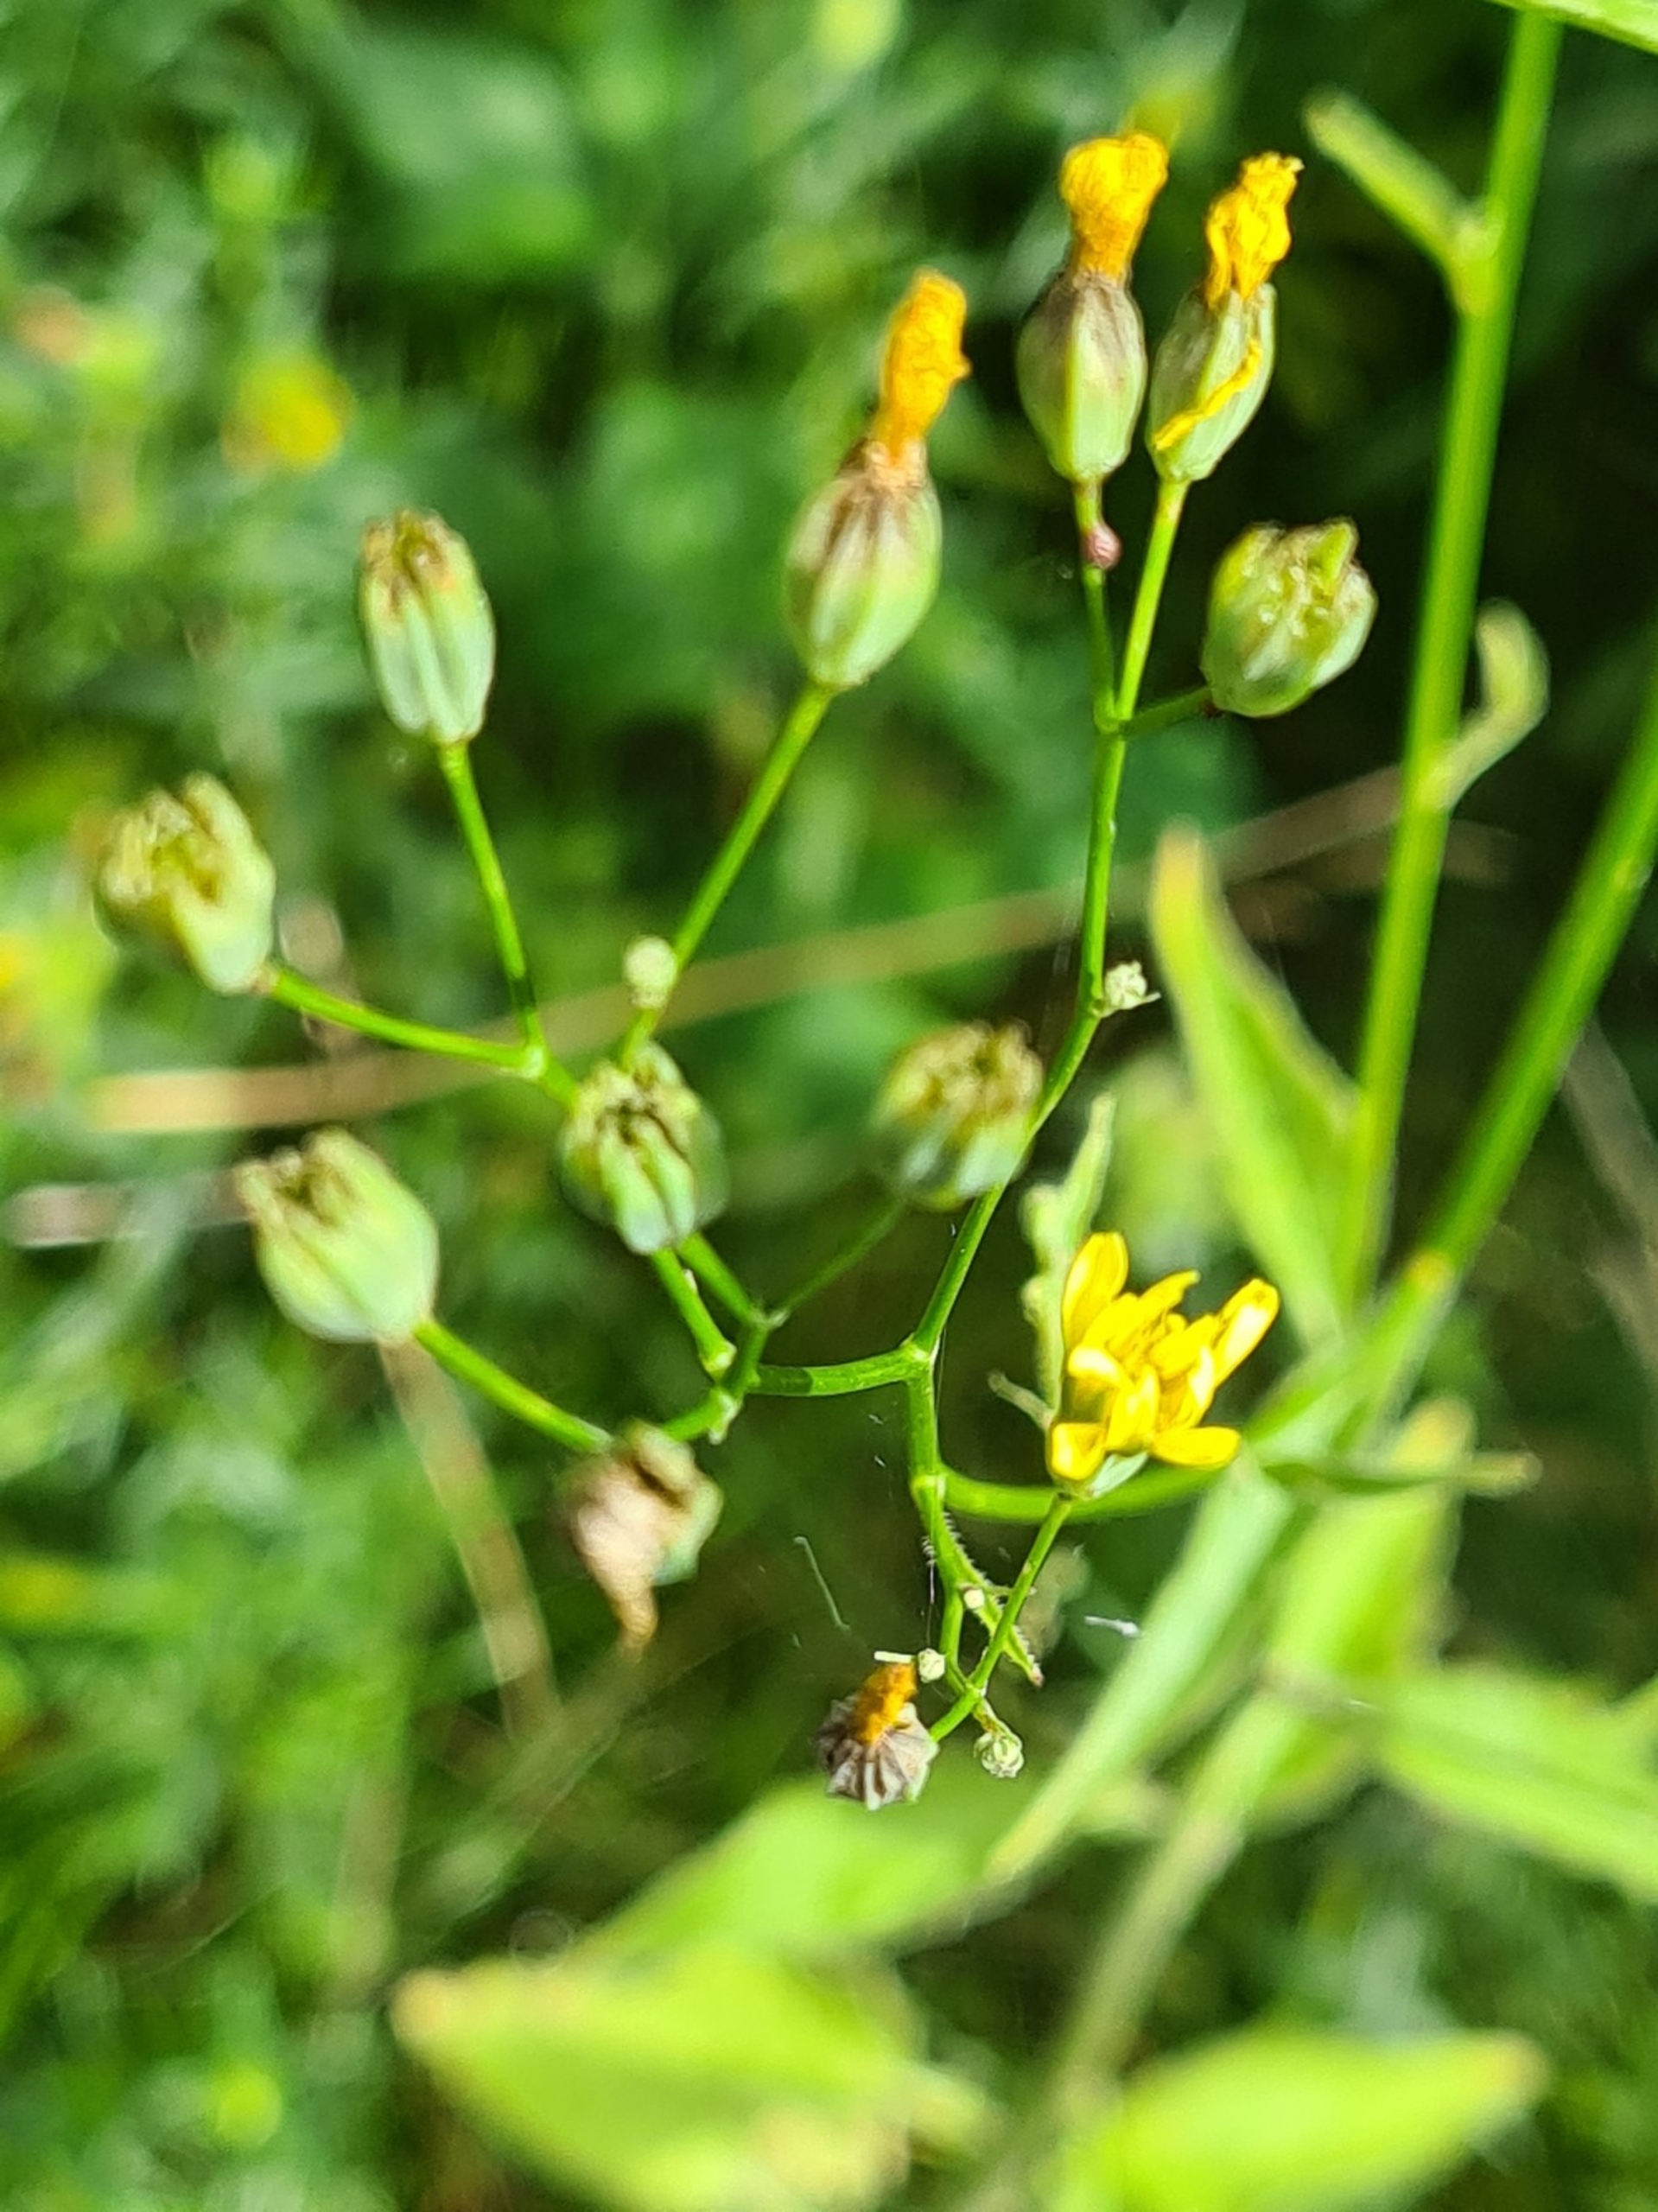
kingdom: Plantae
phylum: Tracheophyta
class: Magnoliopsida
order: Asterales
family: Asteraceae
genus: Lapsana
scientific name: Lapsana communis
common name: Haremad
